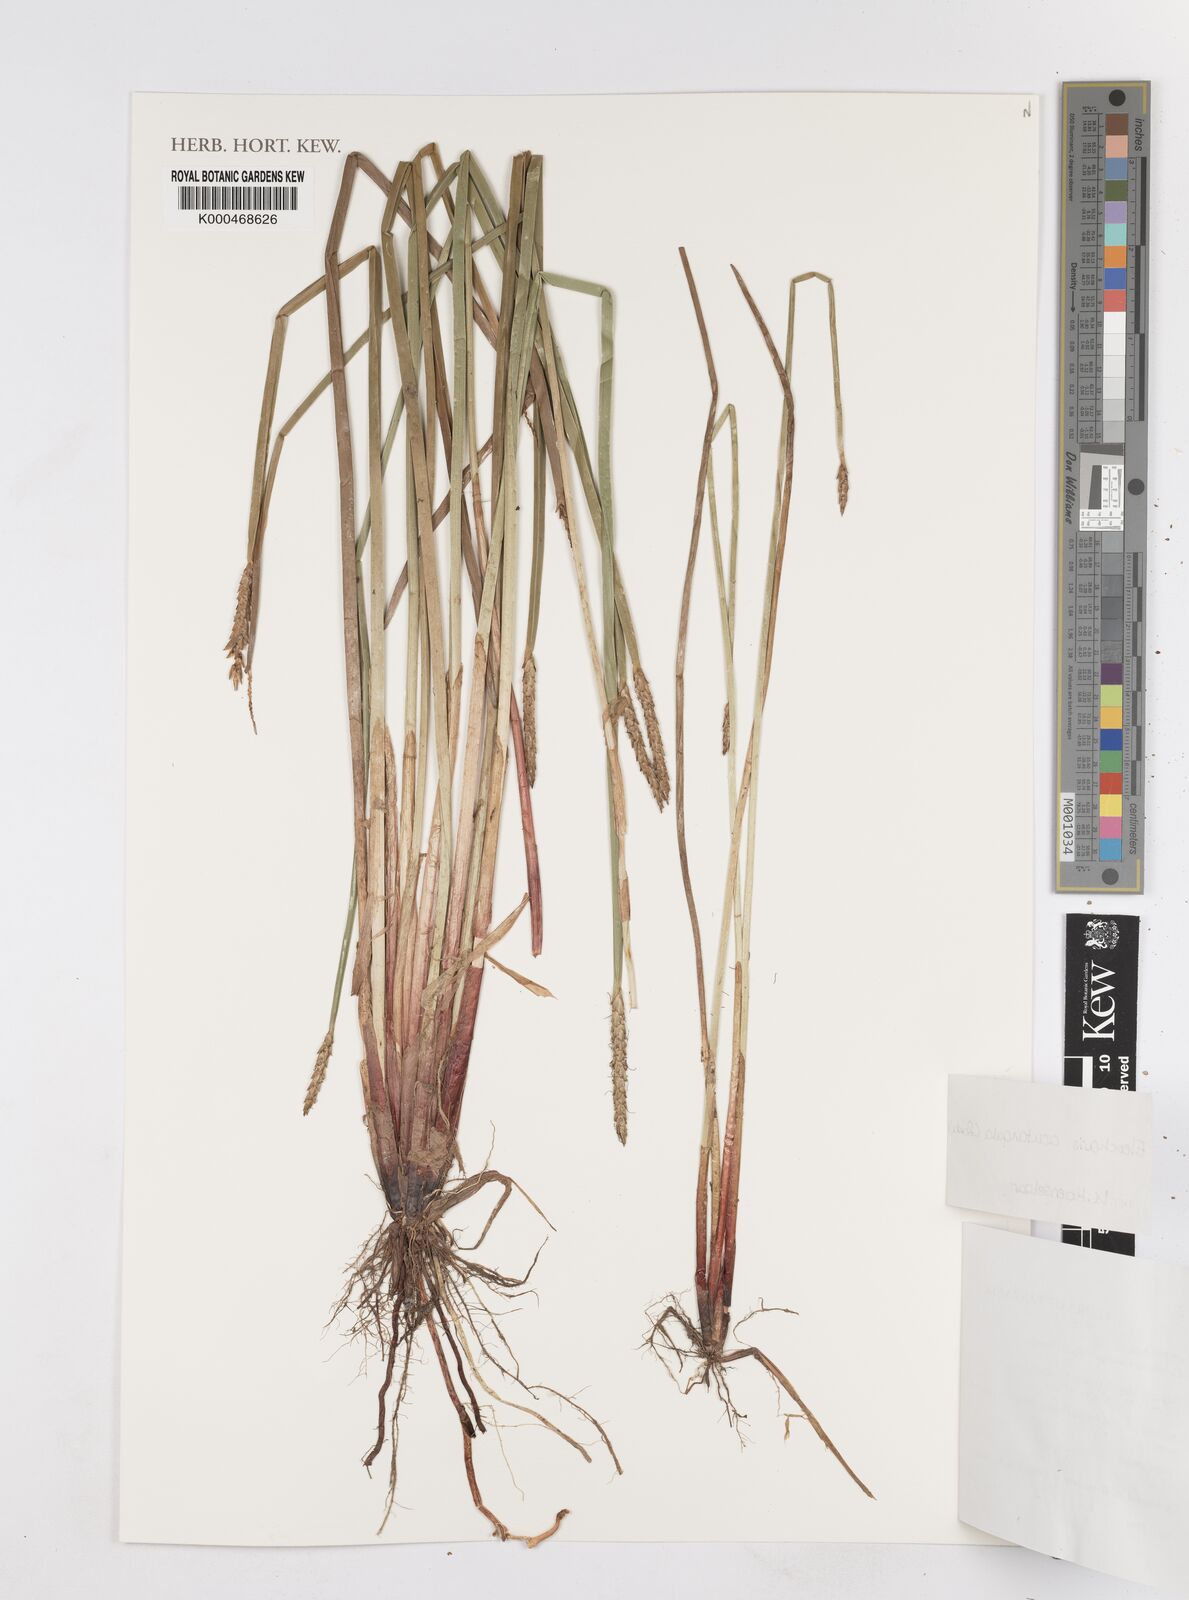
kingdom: Plantae
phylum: Tracheophyta
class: Liliopsida
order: Poales
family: Cyperaceae
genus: Eleocharis
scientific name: Eleocharis acutangula
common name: Acute spikerush
